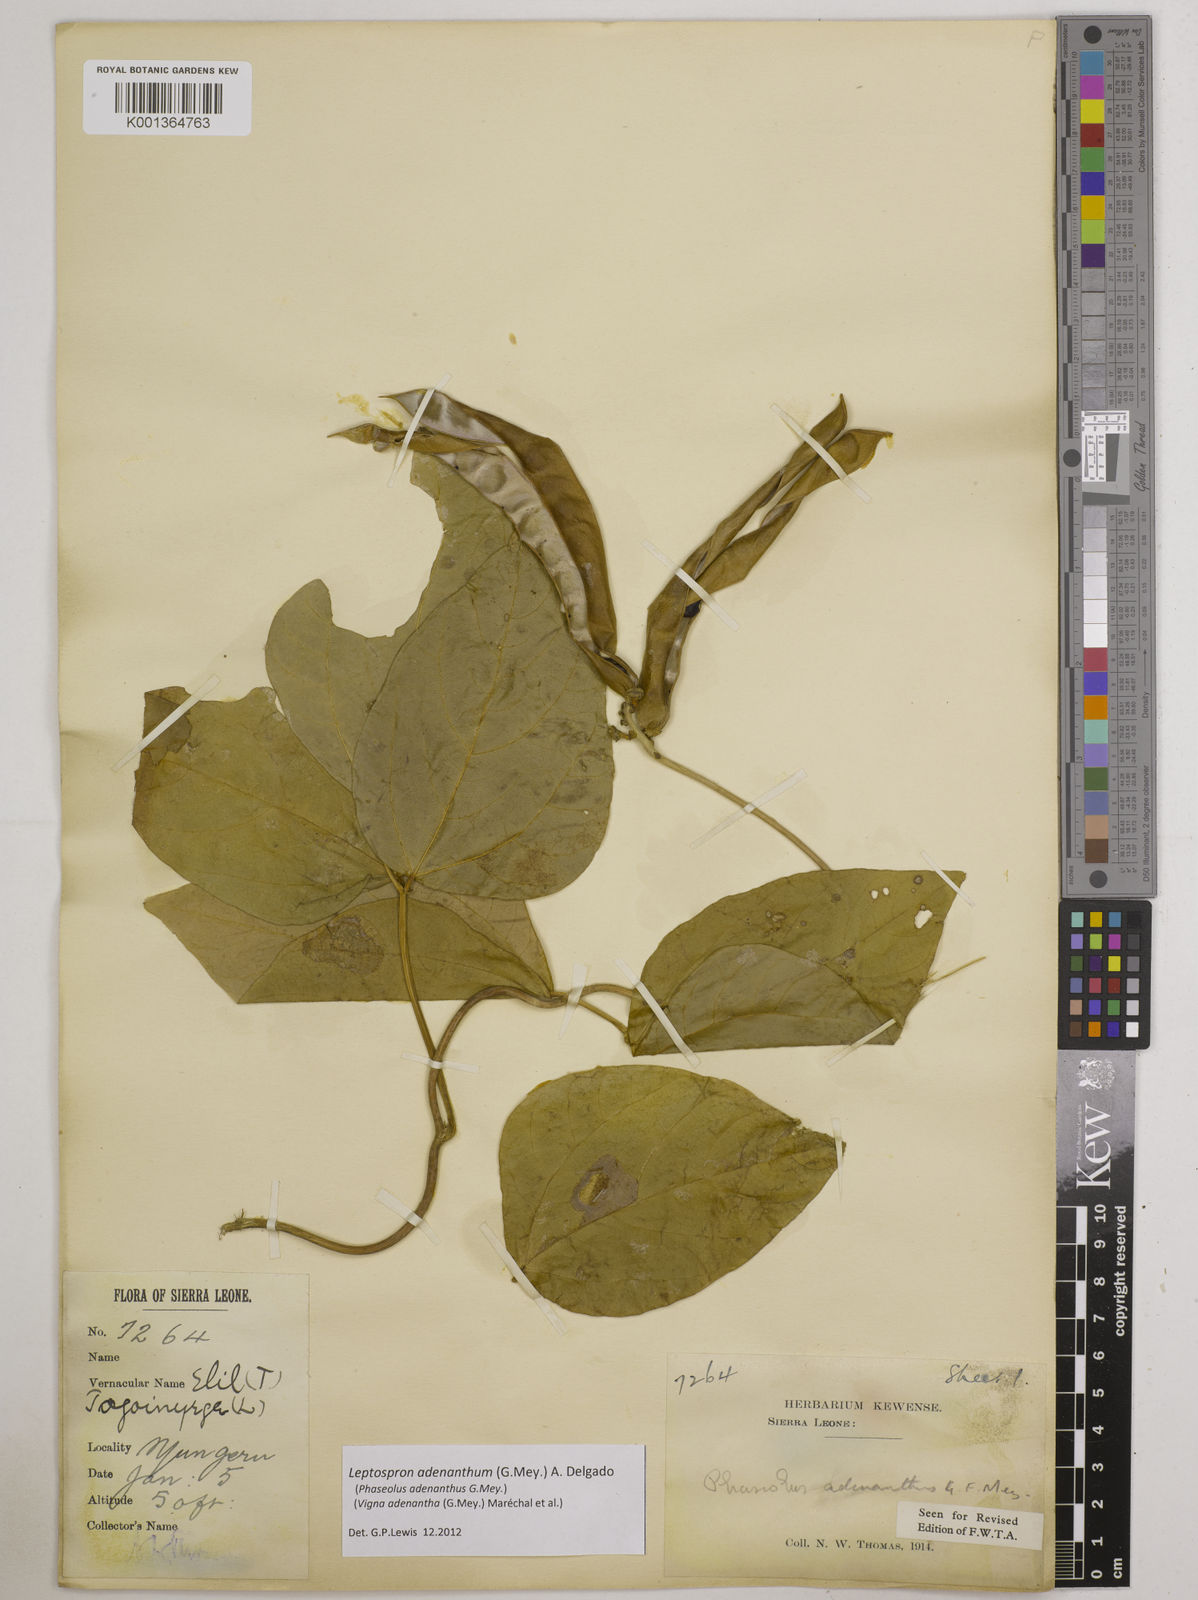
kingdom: Plantae
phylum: Tracheophyta
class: Magnoliopsida
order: Fabales
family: Fabaceae
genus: Leptospron
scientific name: Leptospron adenanthum
